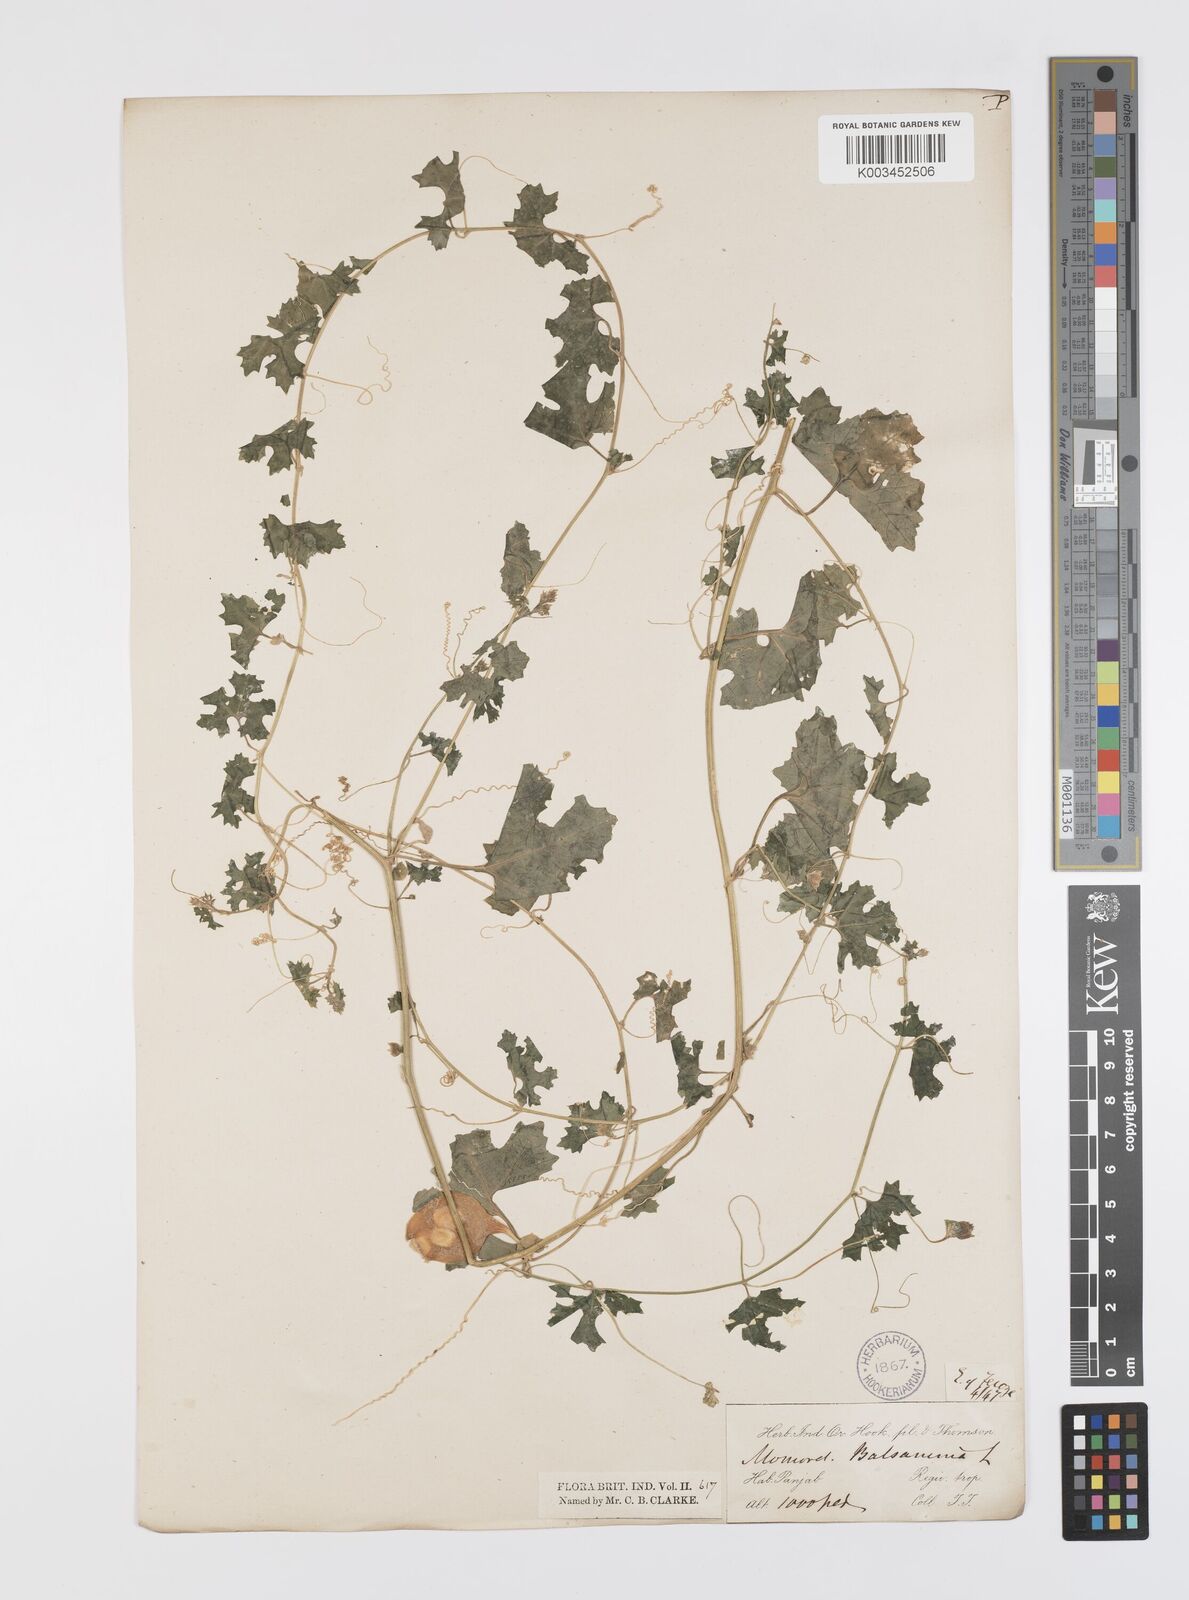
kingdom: Plantae
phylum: Tracheophyta
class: Magnoliopsida
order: Cucurbitales
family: Cucurbitaceae
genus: Momordica
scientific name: Momordica balsamina
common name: Southern balsampear
